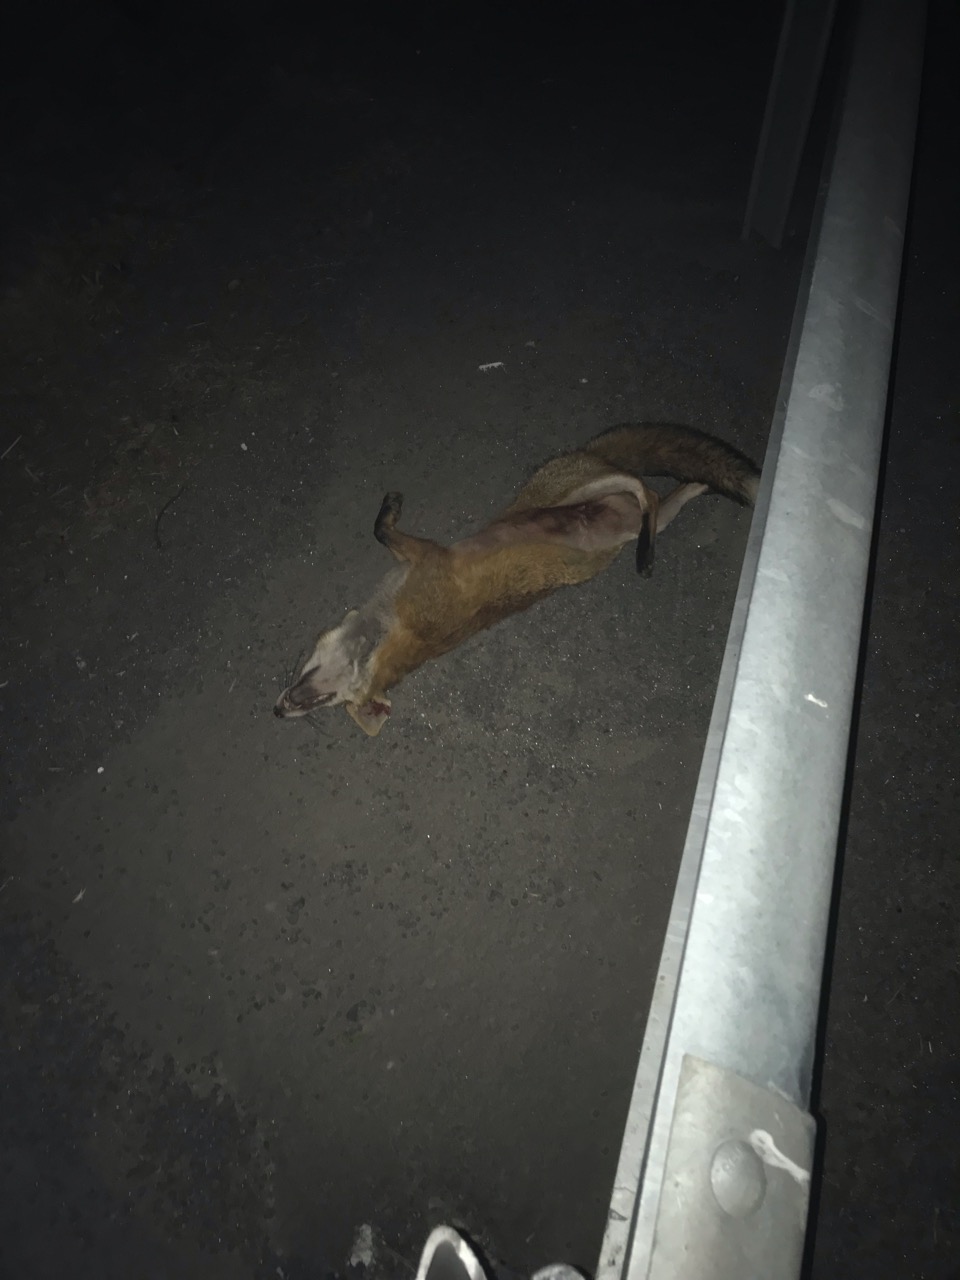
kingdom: Animalia
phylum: Chordata
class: Mammalia
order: Carnivora
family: Canidae
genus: Vulpes
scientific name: Vulpes vulpes
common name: Red fox
